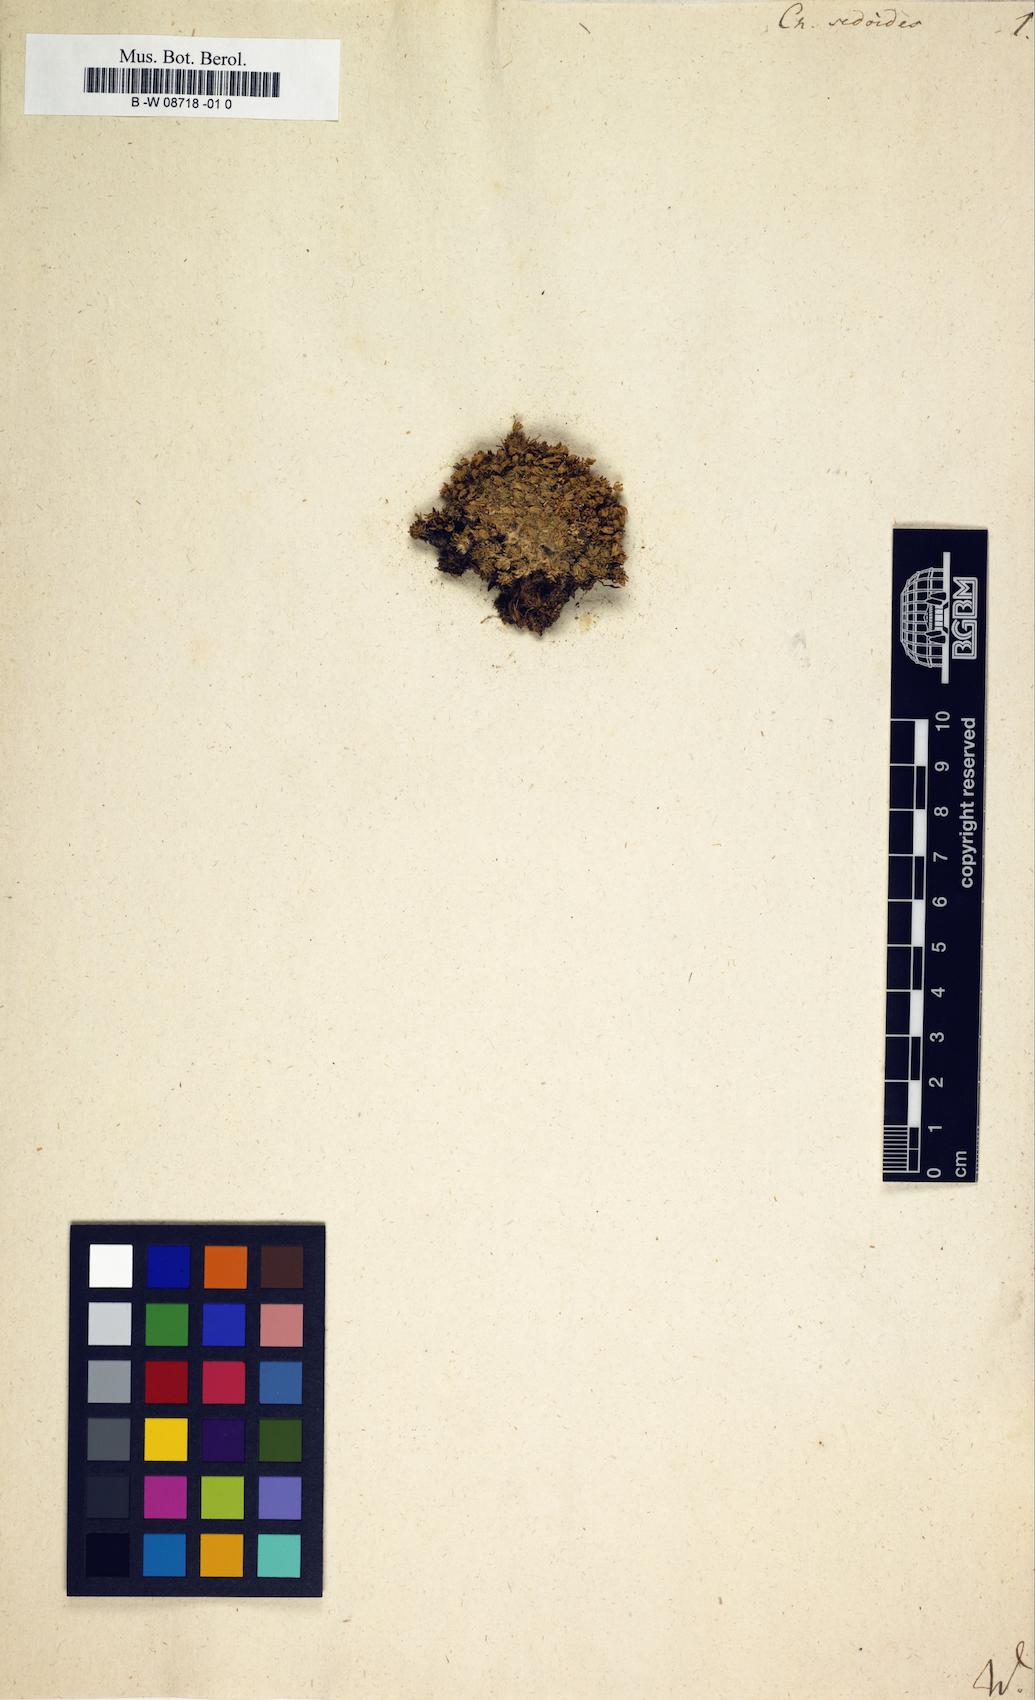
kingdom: Plantae
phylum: Tracheophyta
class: Magnoliopsida
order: Caryophyllales
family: Caryophyllaceae
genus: Cherleria
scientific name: Cherleria sedoides
